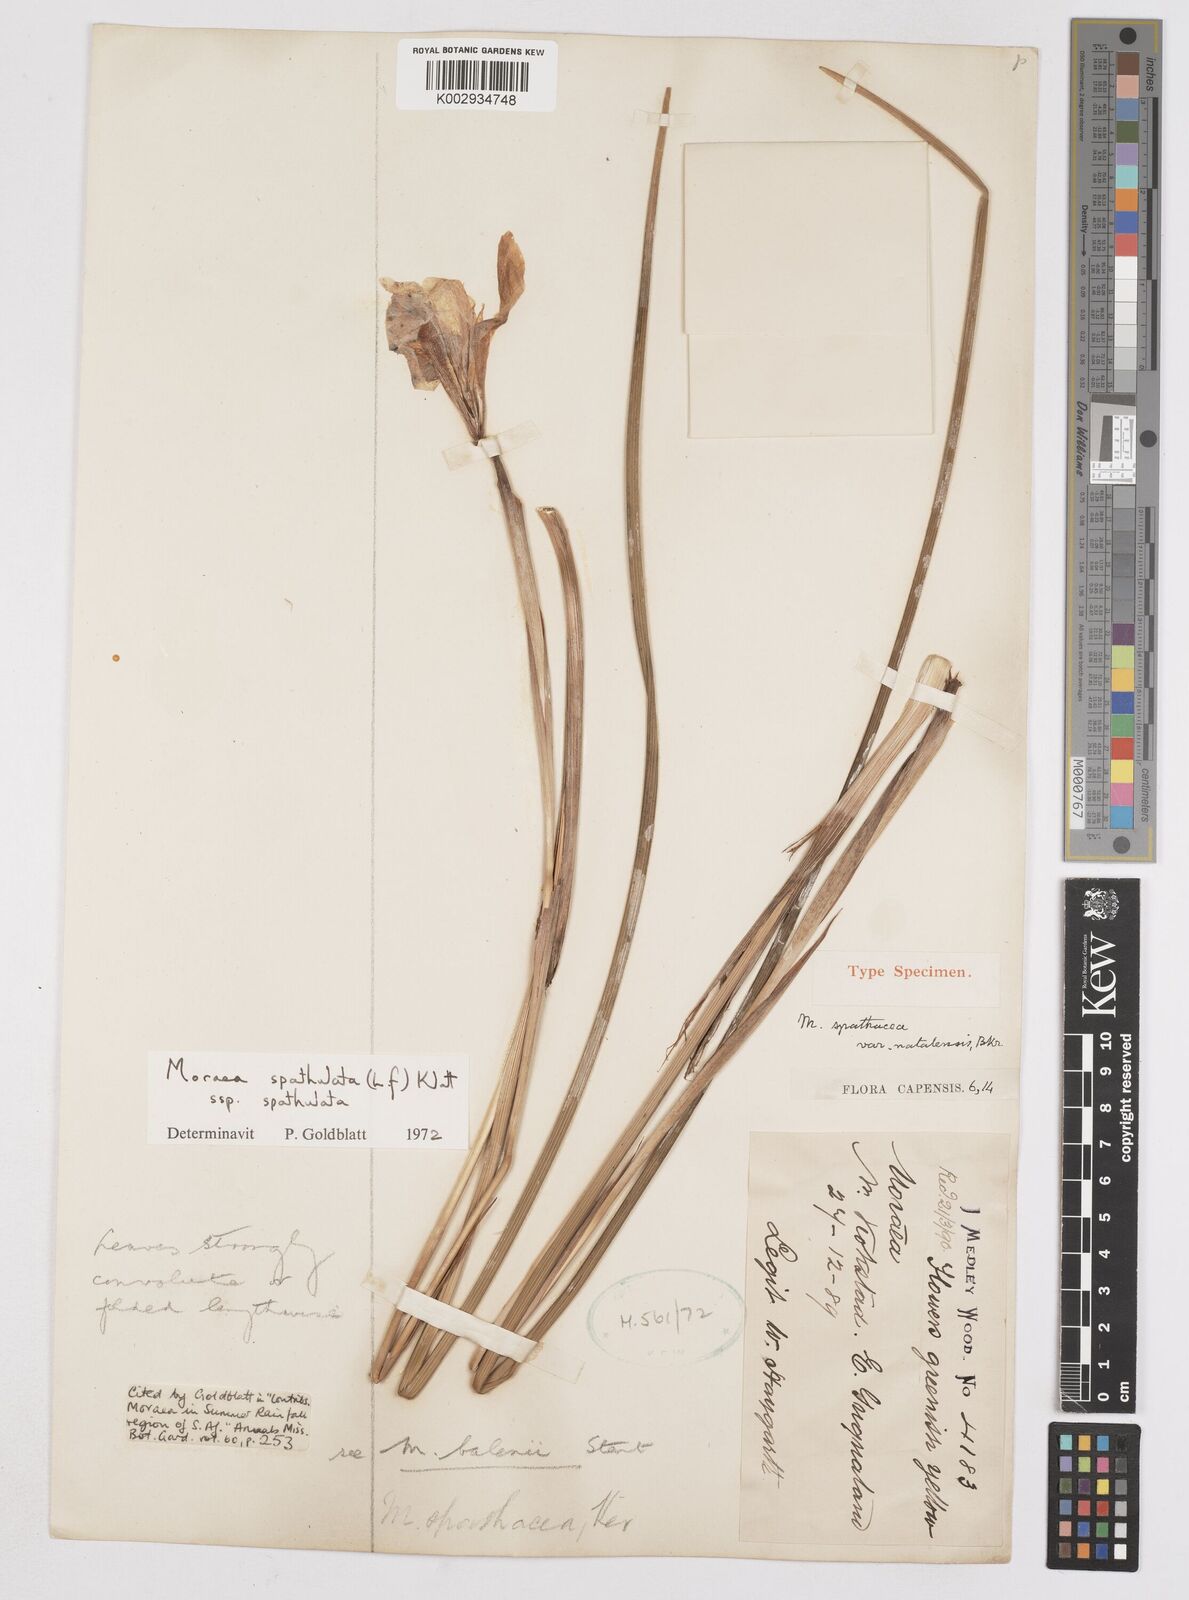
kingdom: Plantae
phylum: Tracheophyta
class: Liliopsida
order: Asparagales
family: Iridaceae
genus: Moraea
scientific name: Moraea spathulata
